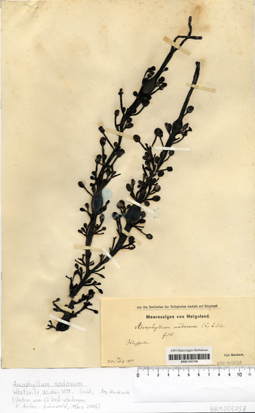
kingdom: Chromista
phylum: Ochrophyta
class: Phaeophyceae
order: Fucales
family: Fucaceae
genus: Ascophyllum
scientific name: Ascophyllum nodosum
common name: Knotted wrack
